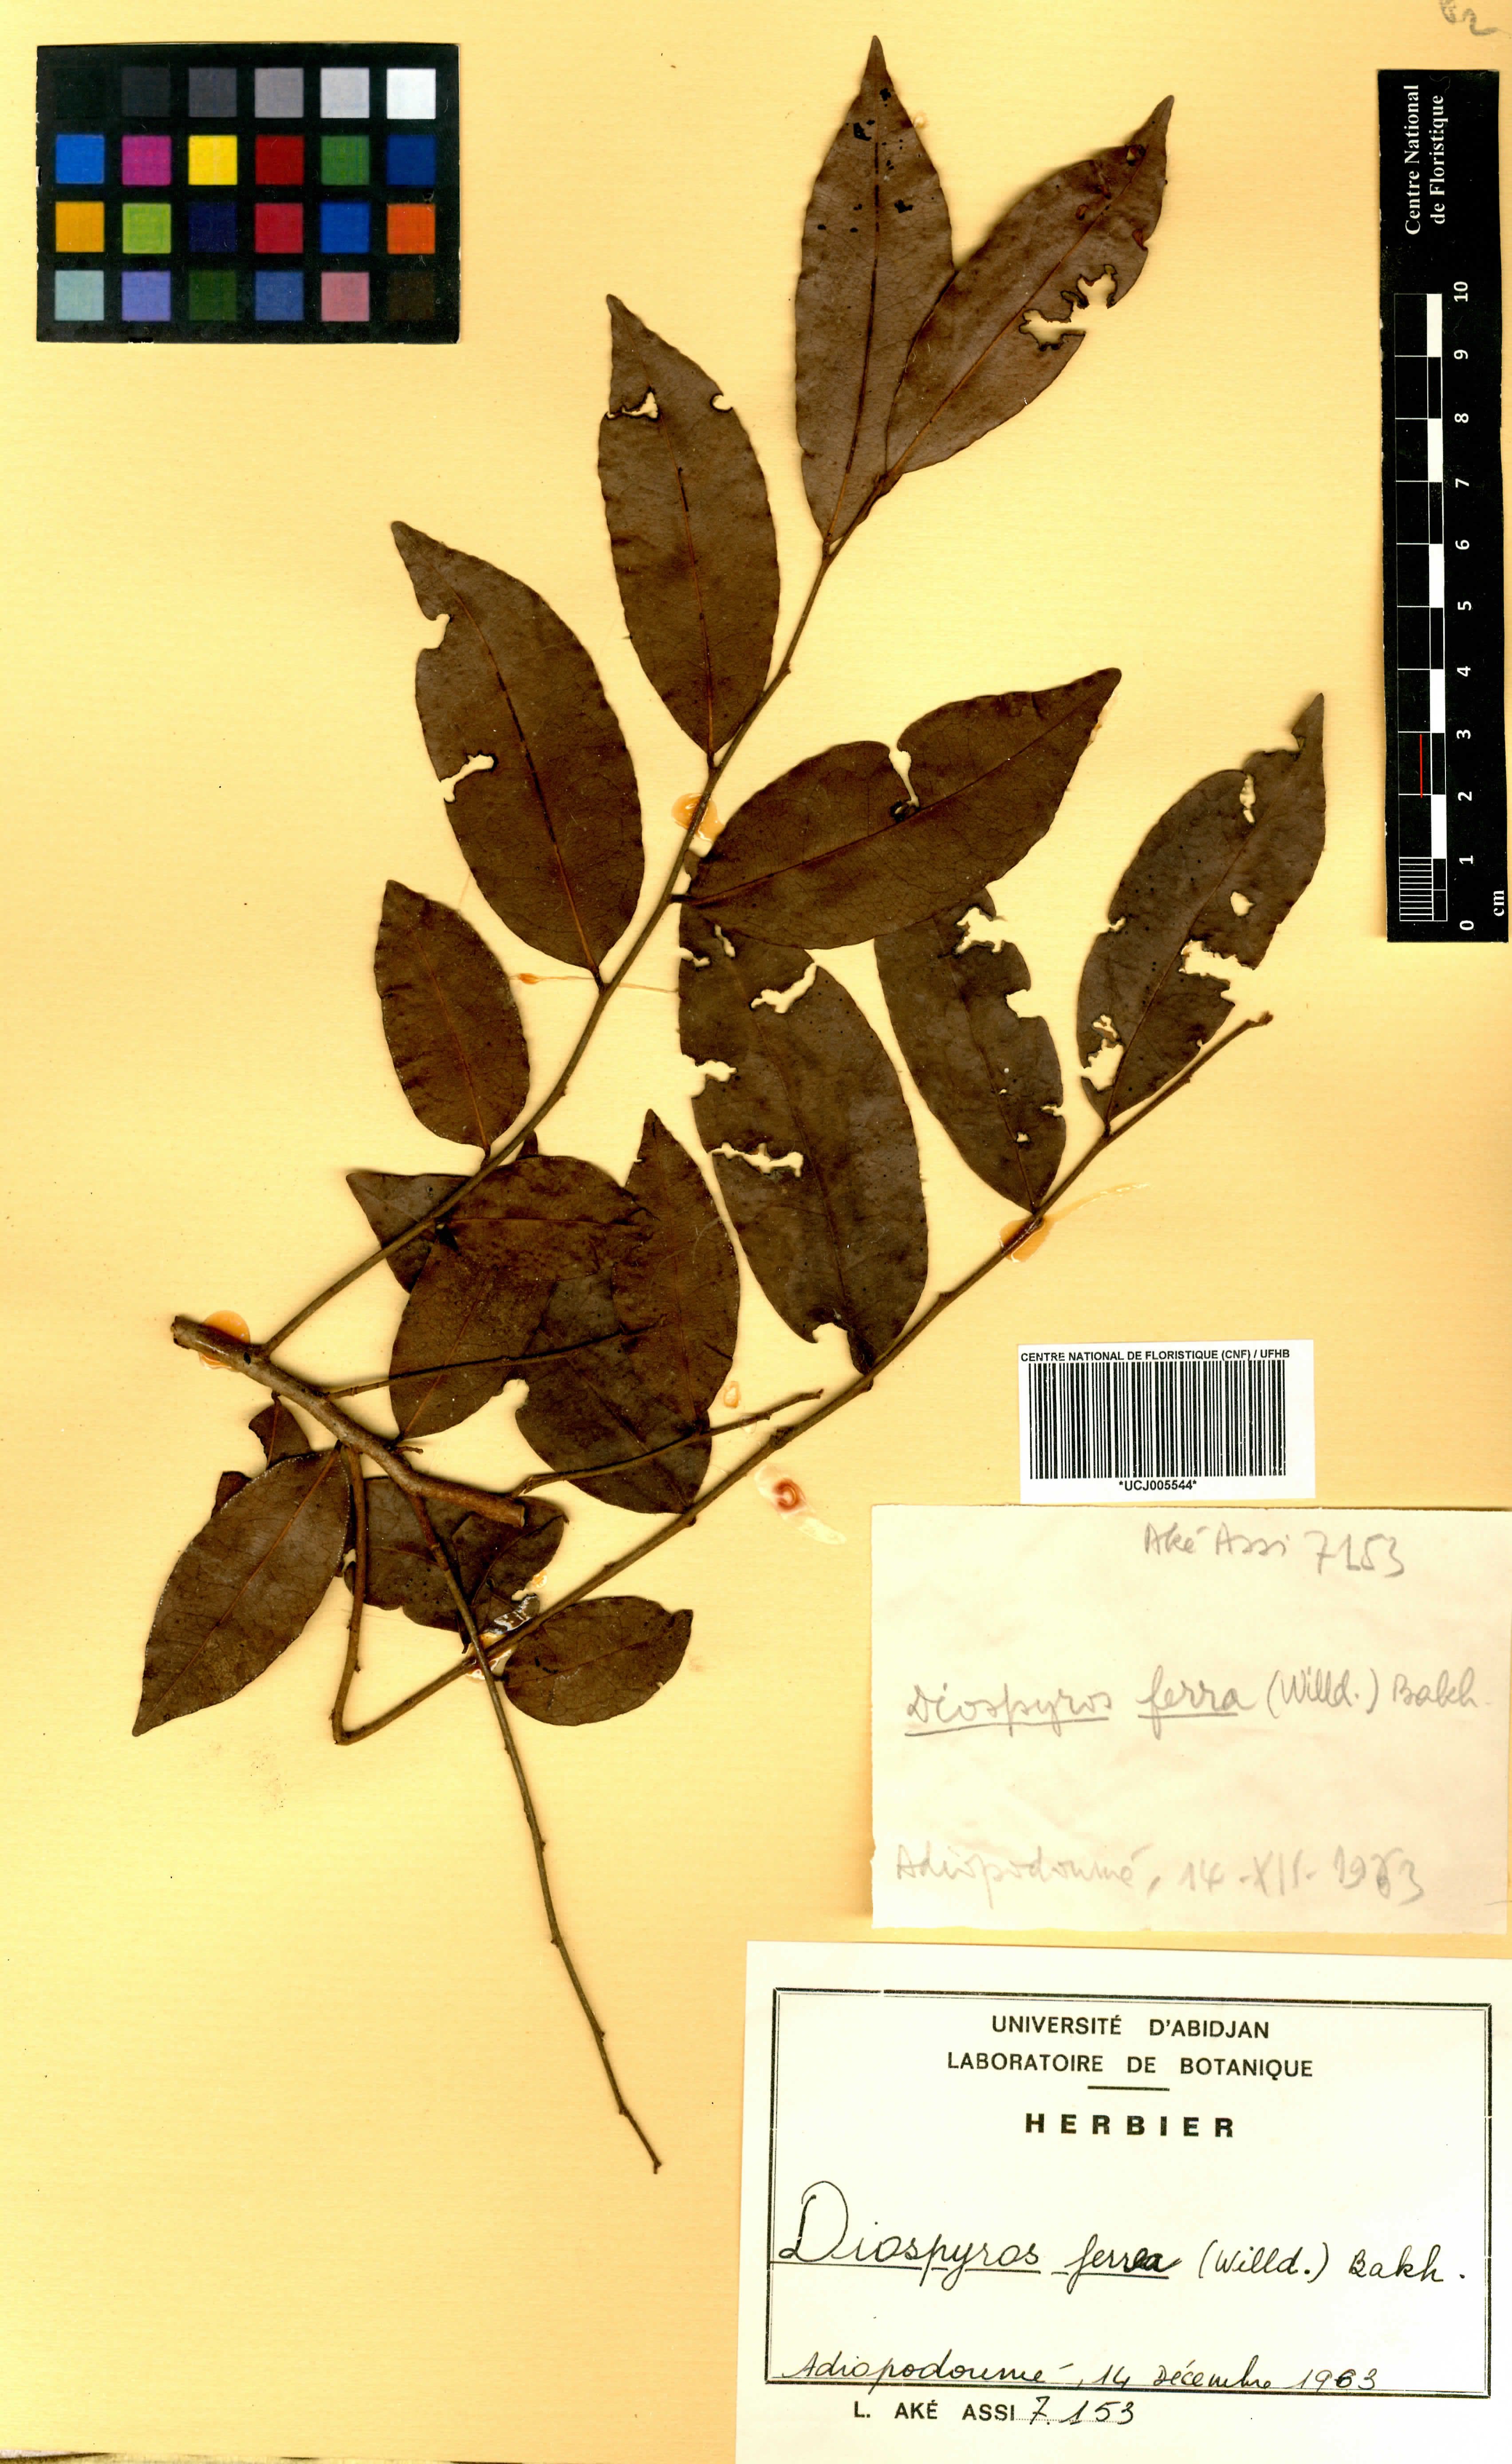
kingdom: Plantae
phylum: Tracheophyta
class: Magnoliopsida
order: Ericales
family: Ebenaceae
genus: Diospyros
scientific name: Diospyros ferrea
